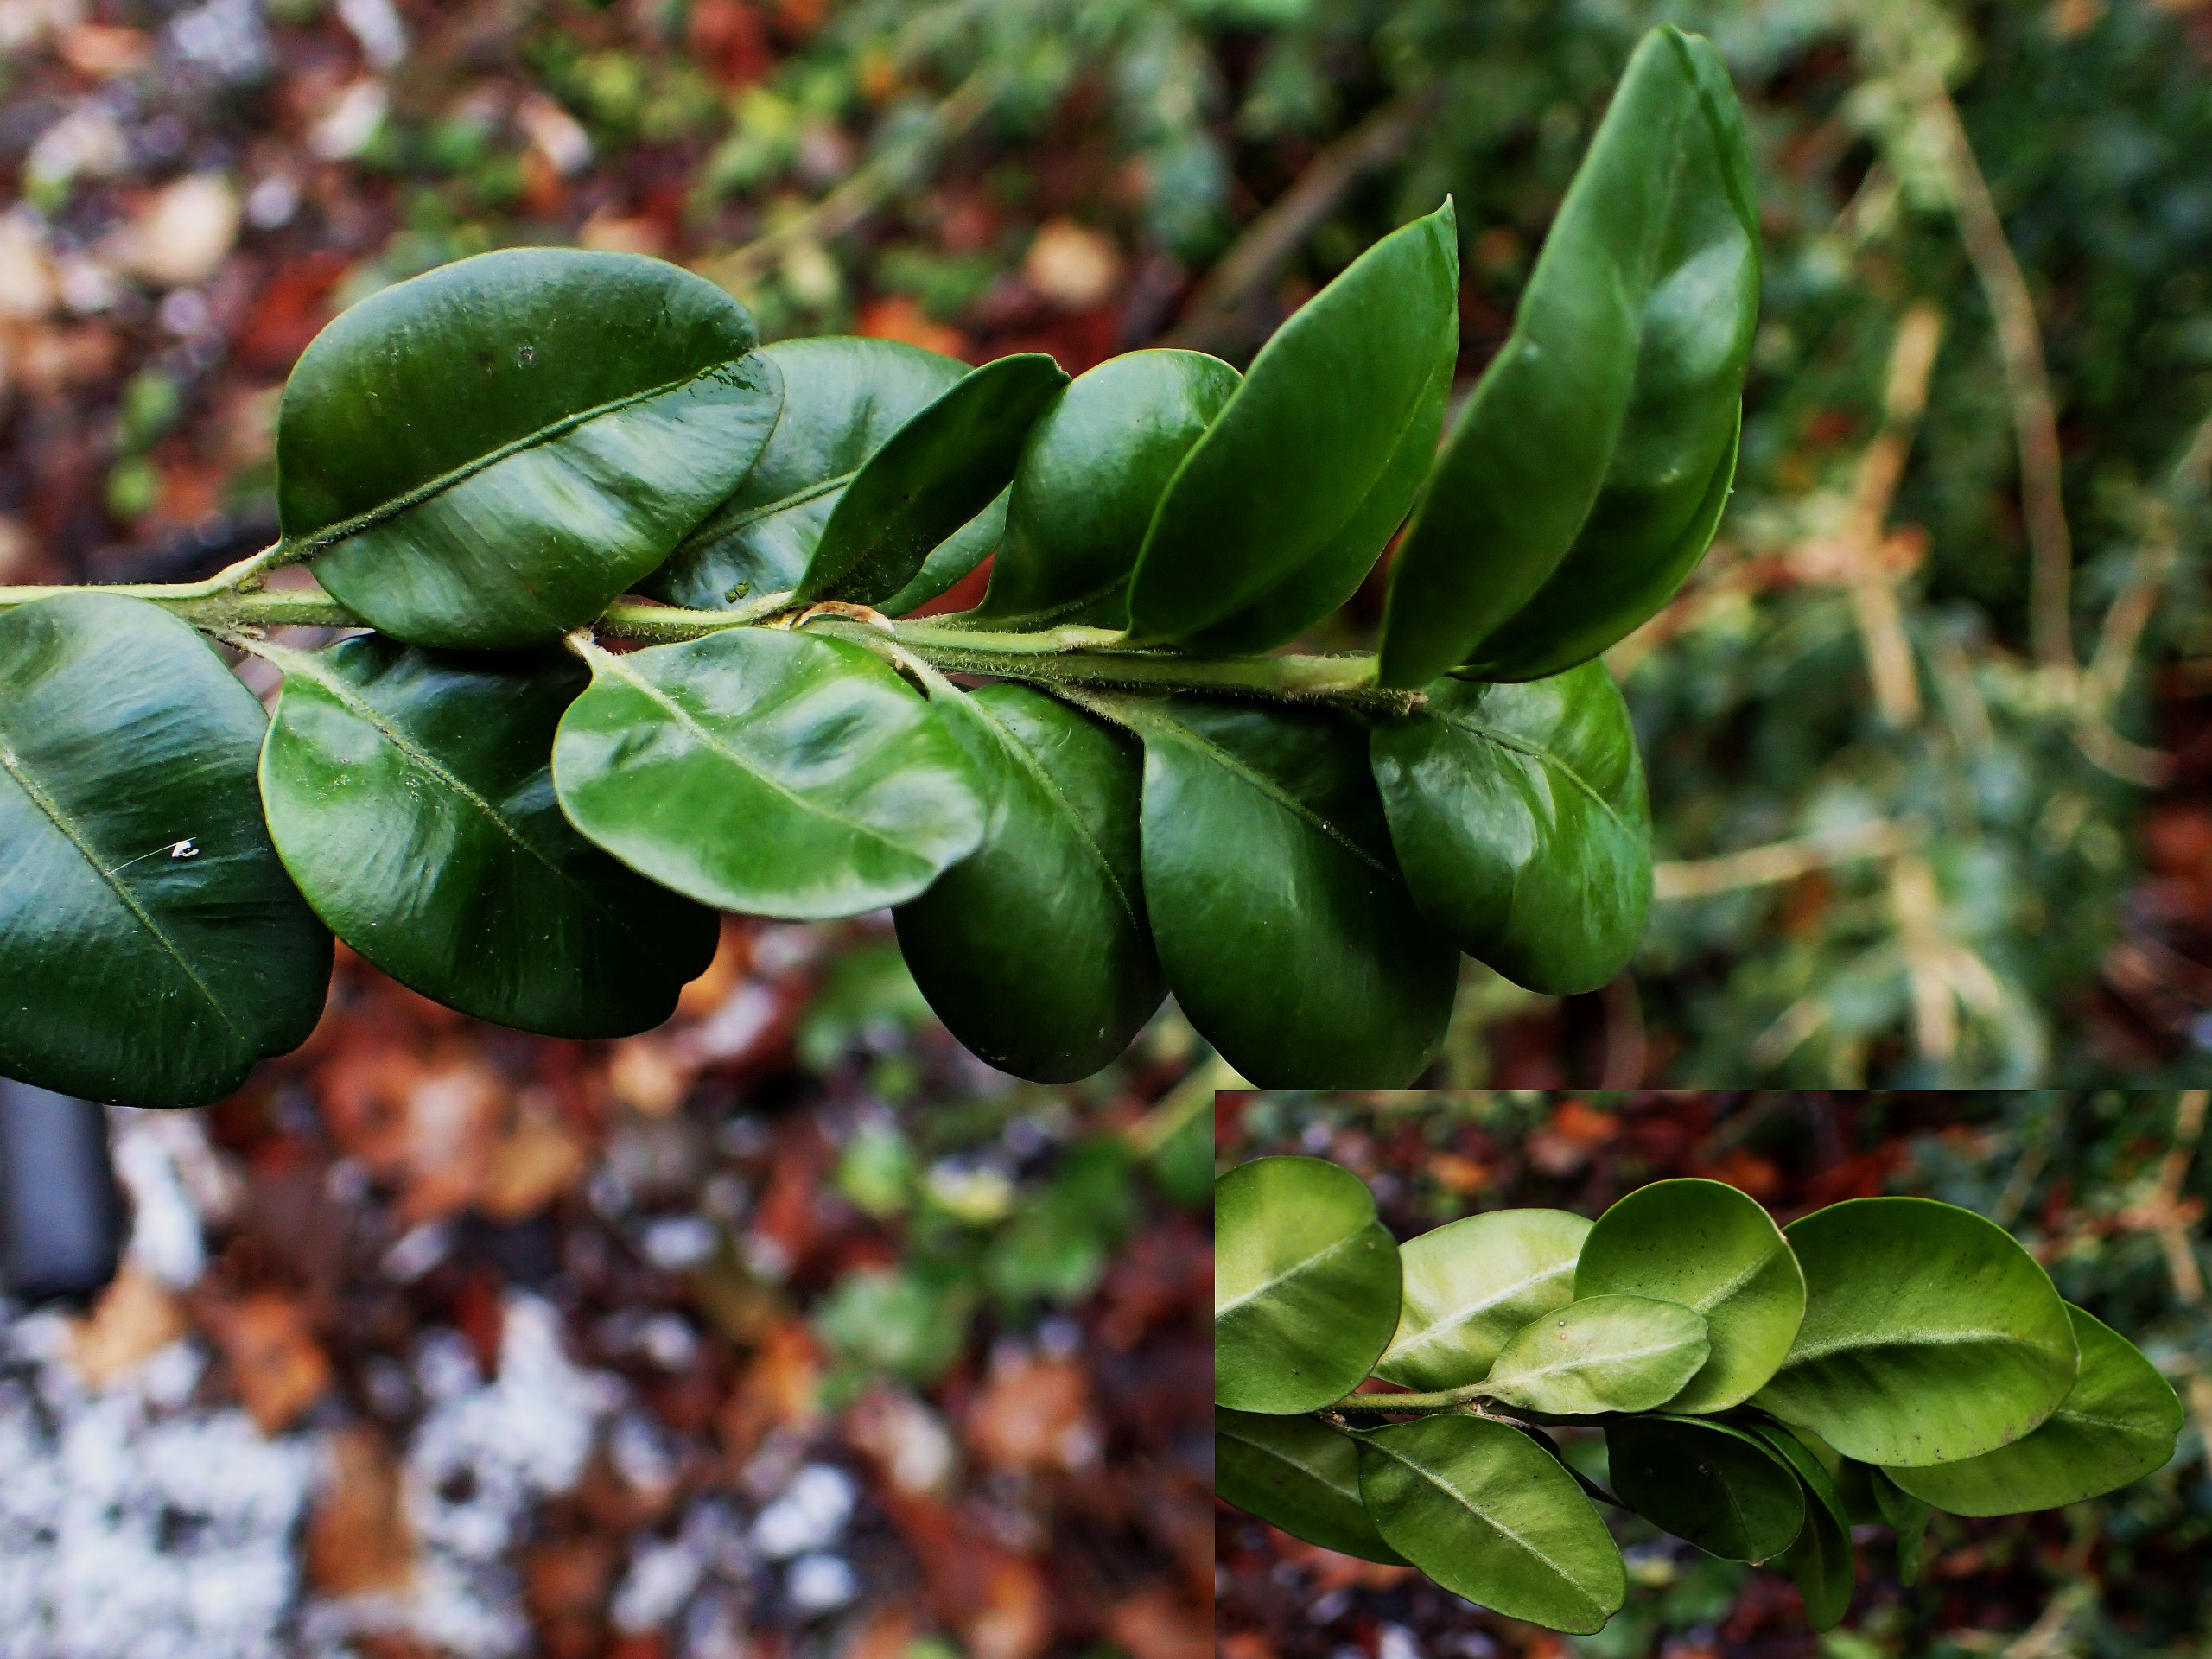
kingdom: Plantae
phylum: Tracheophyta
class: Magnoliopsida
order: Buxales
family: Buxaceae
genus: Buxus
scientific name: Buxus microphylla
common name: Småbladet buksbom
